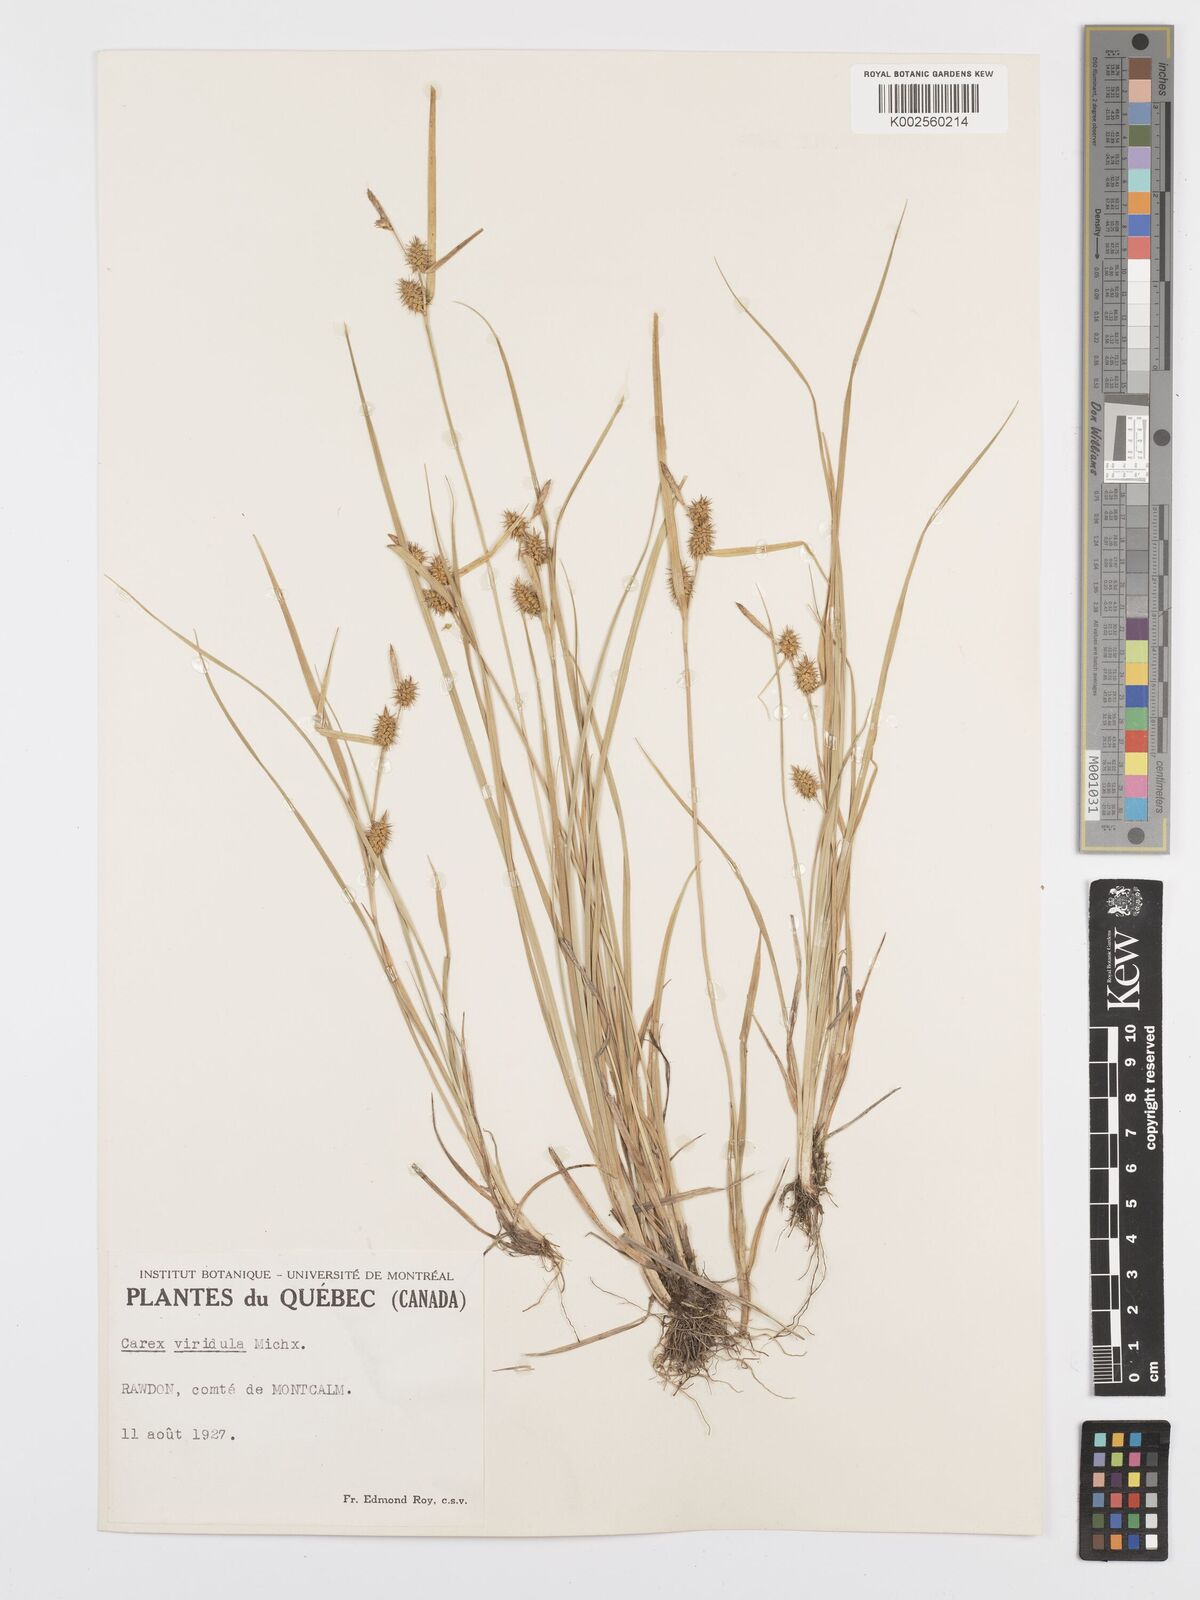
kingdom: Plantae
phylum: Tracheophyta
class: Liliopsida
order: Poales
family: Cyperaceae
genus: Carex
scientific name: Carex oederi
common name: Common & small-fruited yellow-sedge
